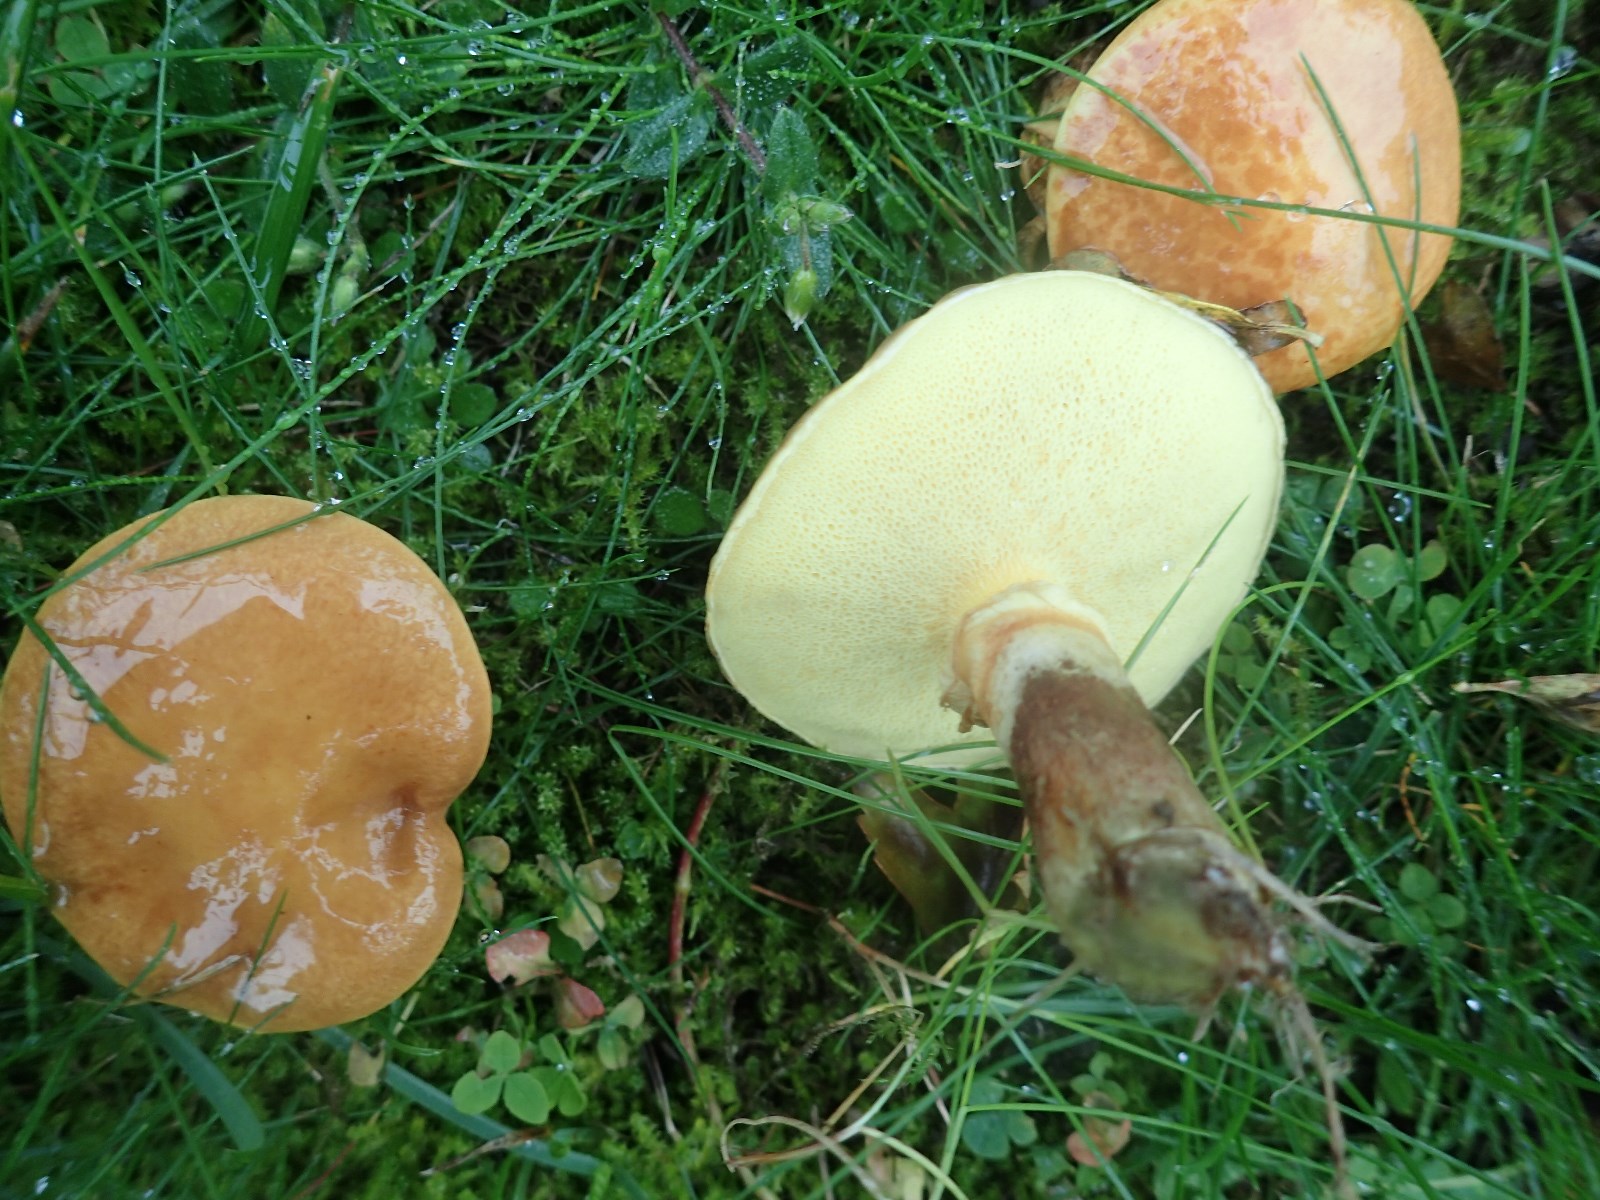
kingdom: Fungi
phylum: Basidiomycota
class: Agaricomycetes
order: Boletales
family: Suillaceae
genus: Suillus
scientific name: Suillus grevillei
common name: lærke-slimrørhat
